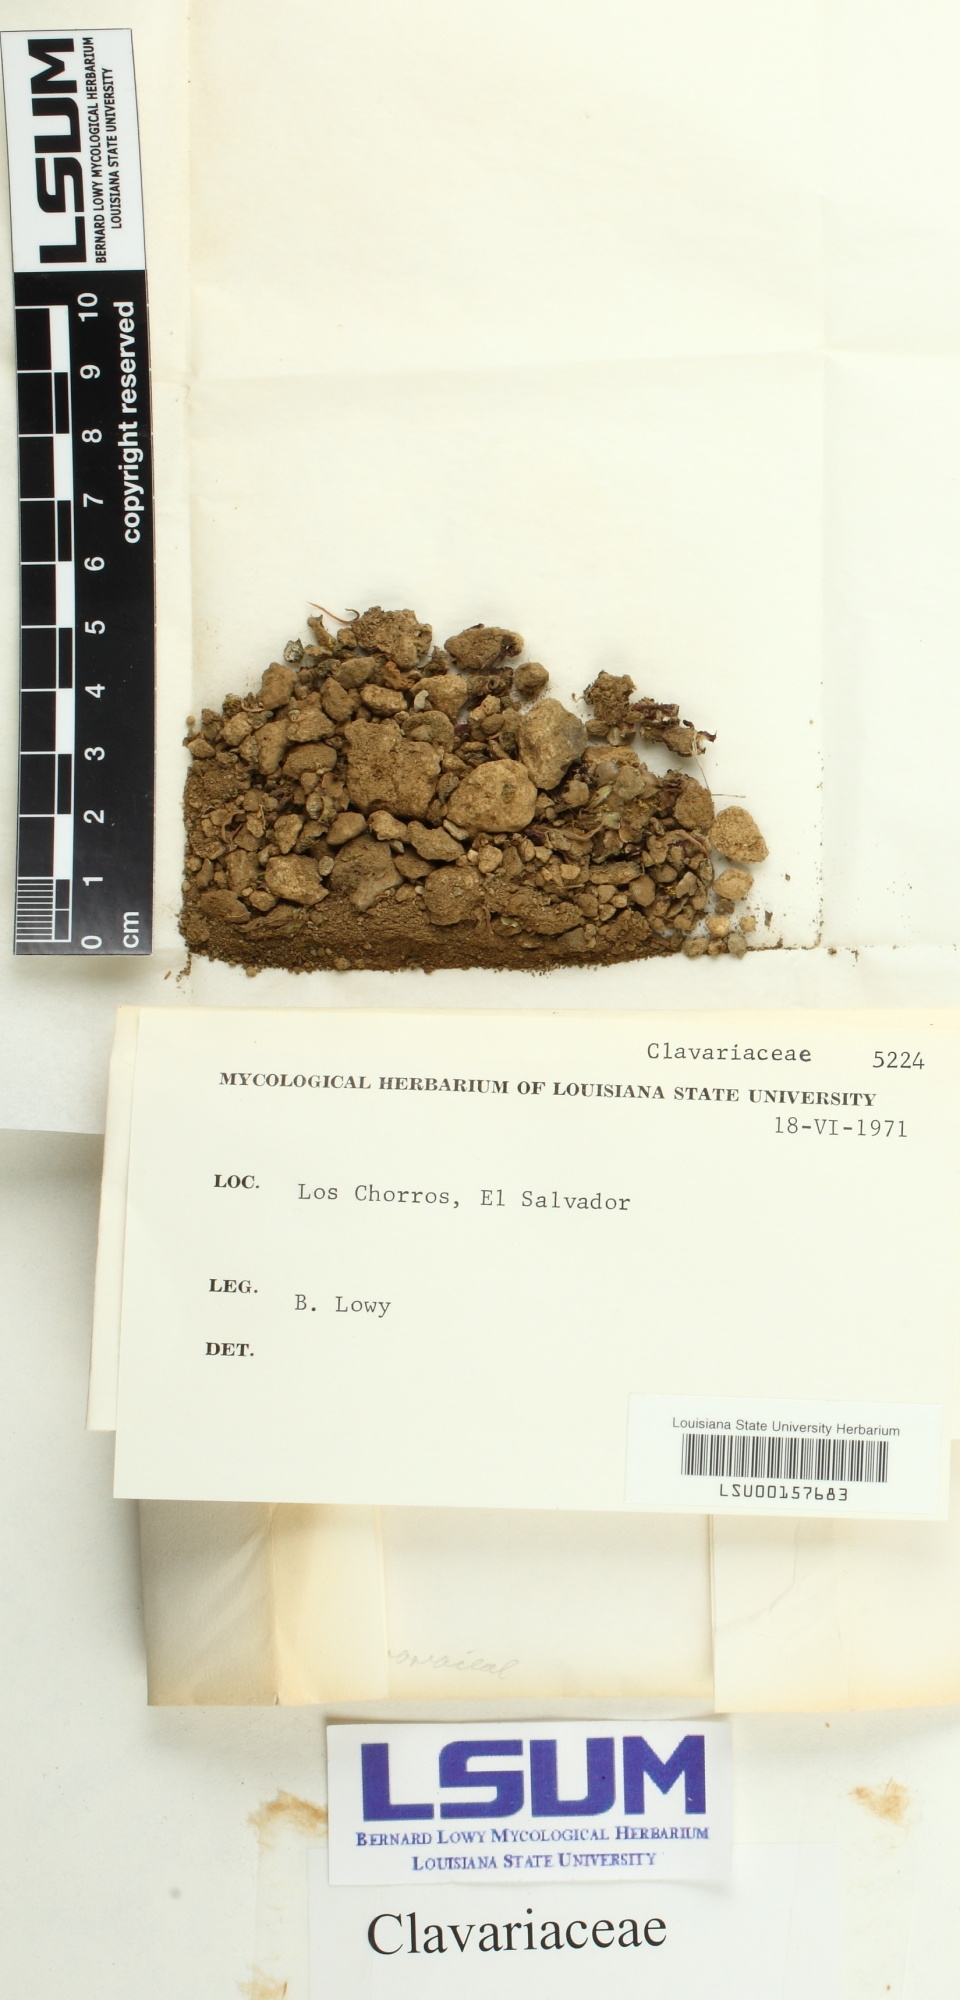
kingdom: Fungi
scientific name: Fungi
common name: Fungi
